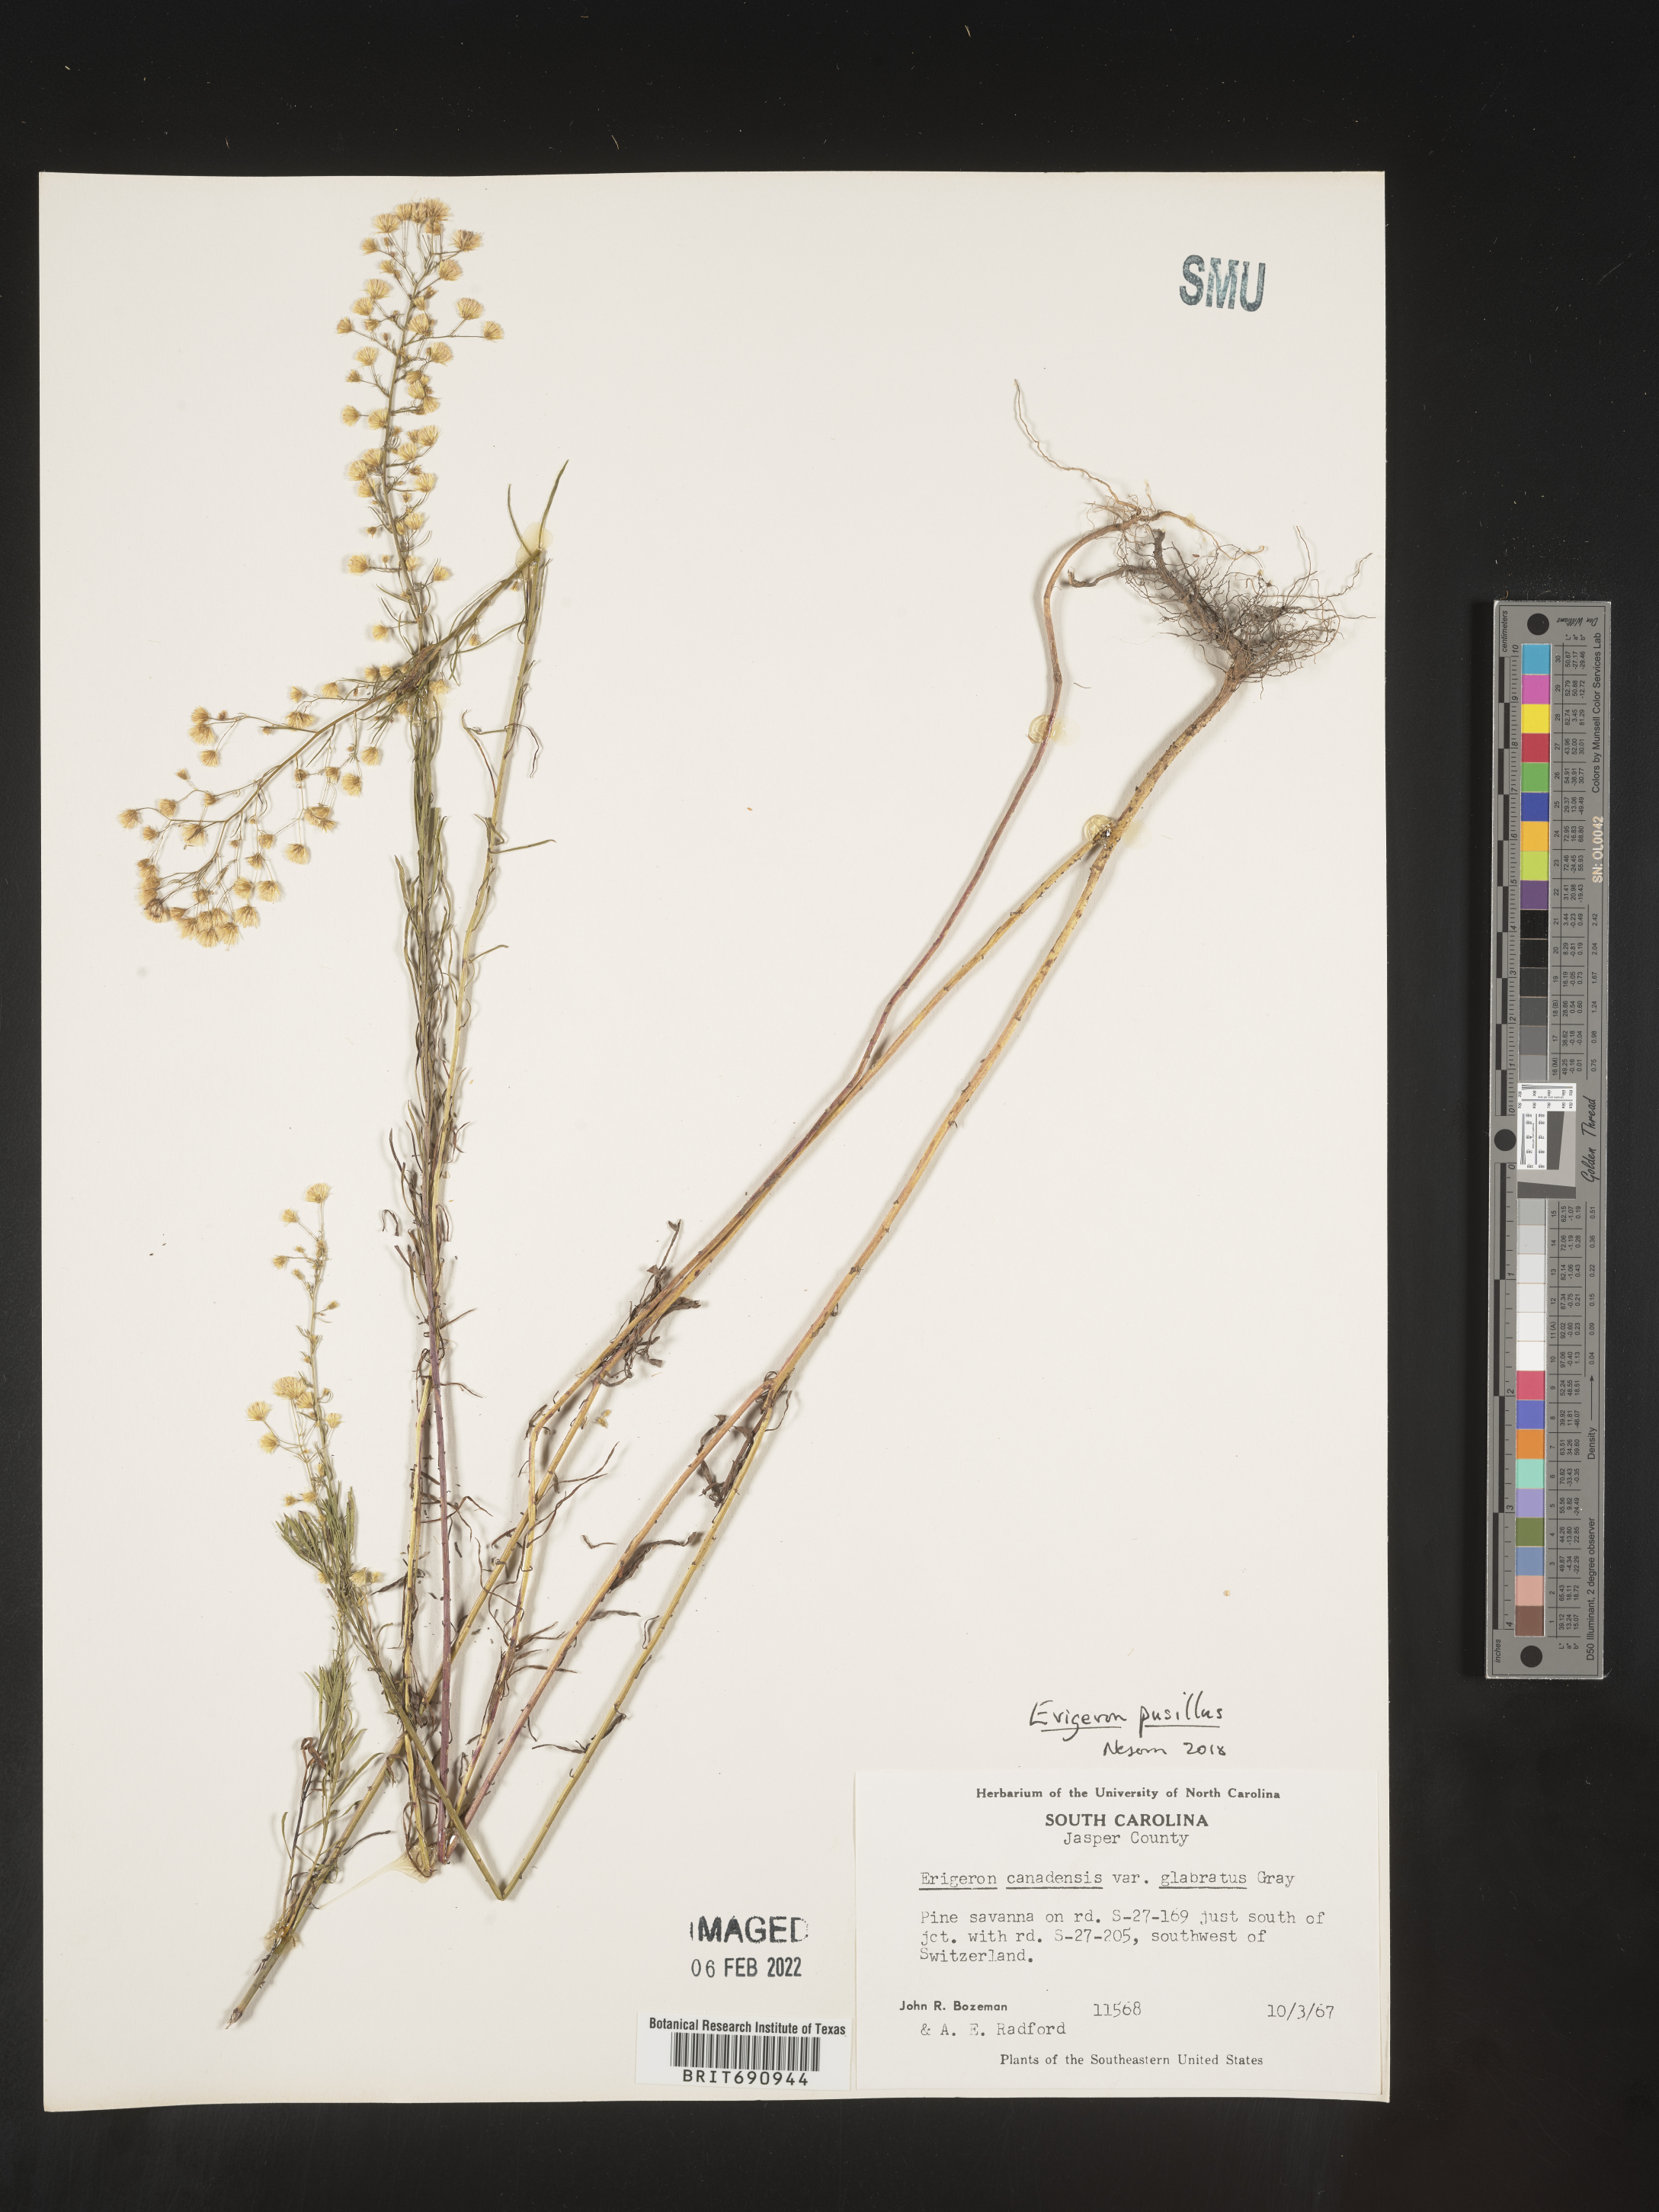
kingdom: Plantae
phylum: Tracheophyta
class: Magnoliopsida
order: Asterales
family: Asteraceae
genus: Erigeron
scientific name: Erigeron canadensis
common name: Canadian fleabane
